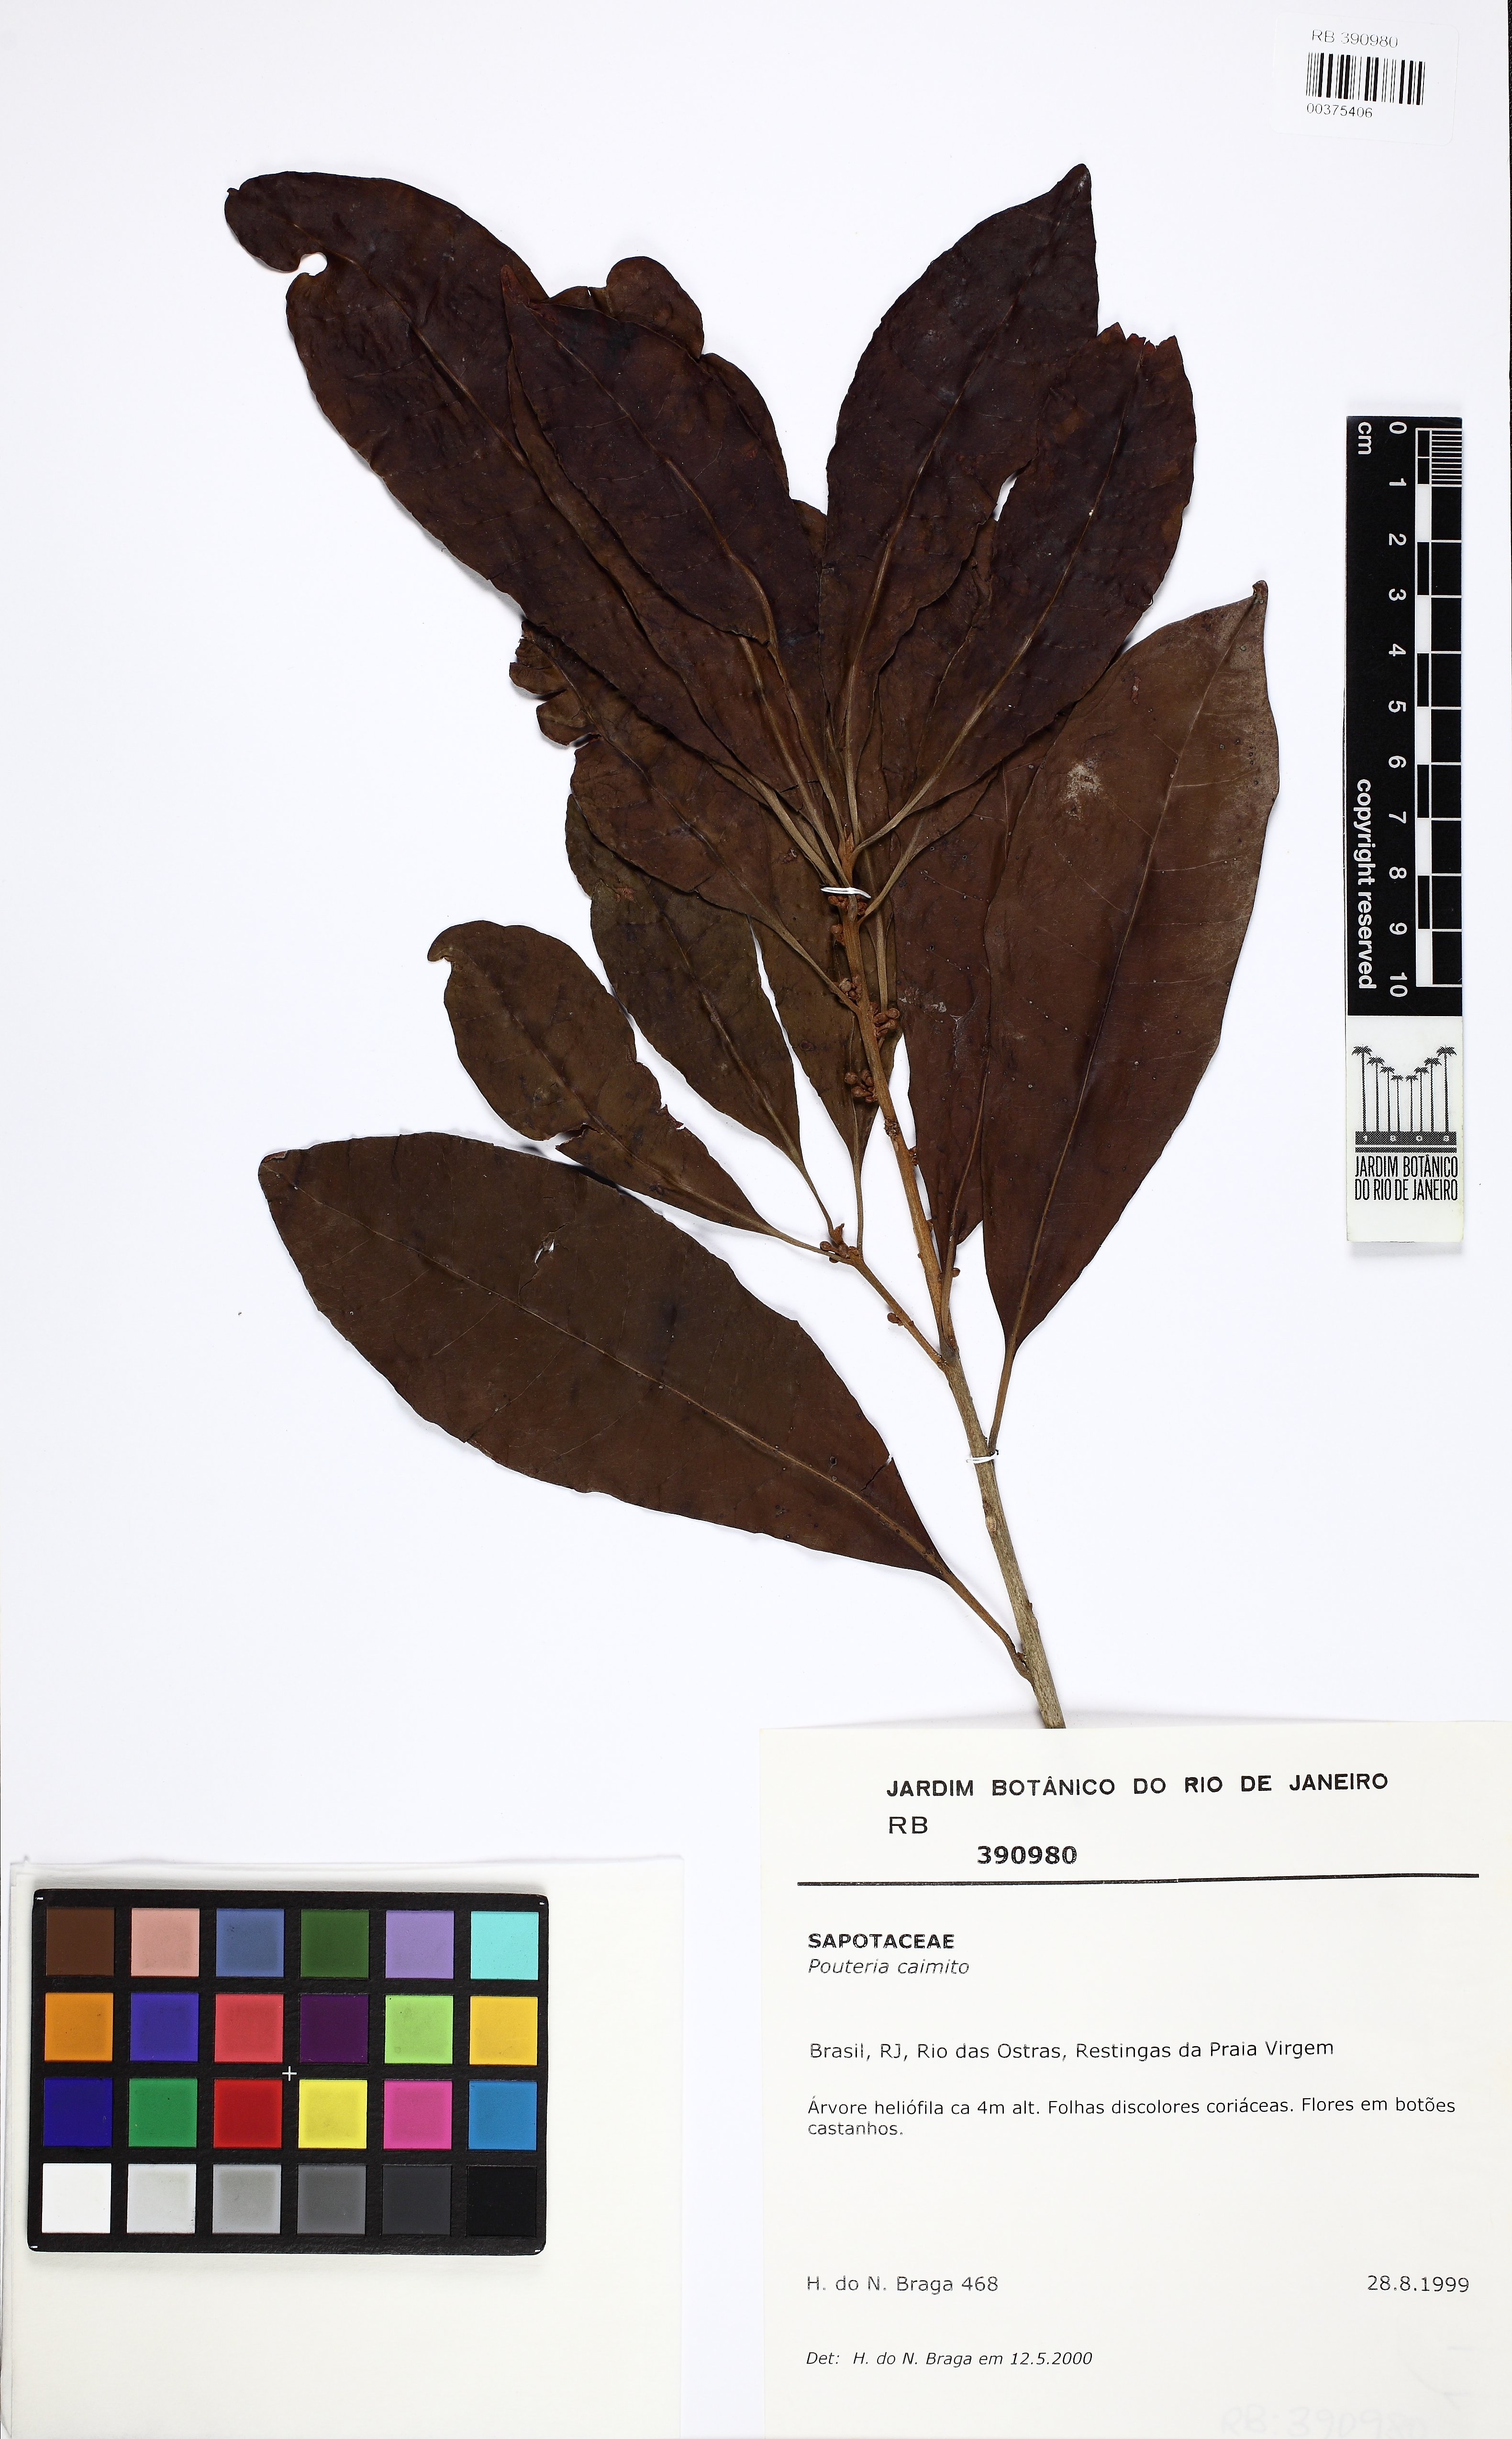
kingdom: Plantae
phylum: Tracheophyta
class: Magnoliopsida
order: Ericales
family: Sapotaceae
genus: Pouteria
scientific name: Pouteria caimito
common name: Caimito
